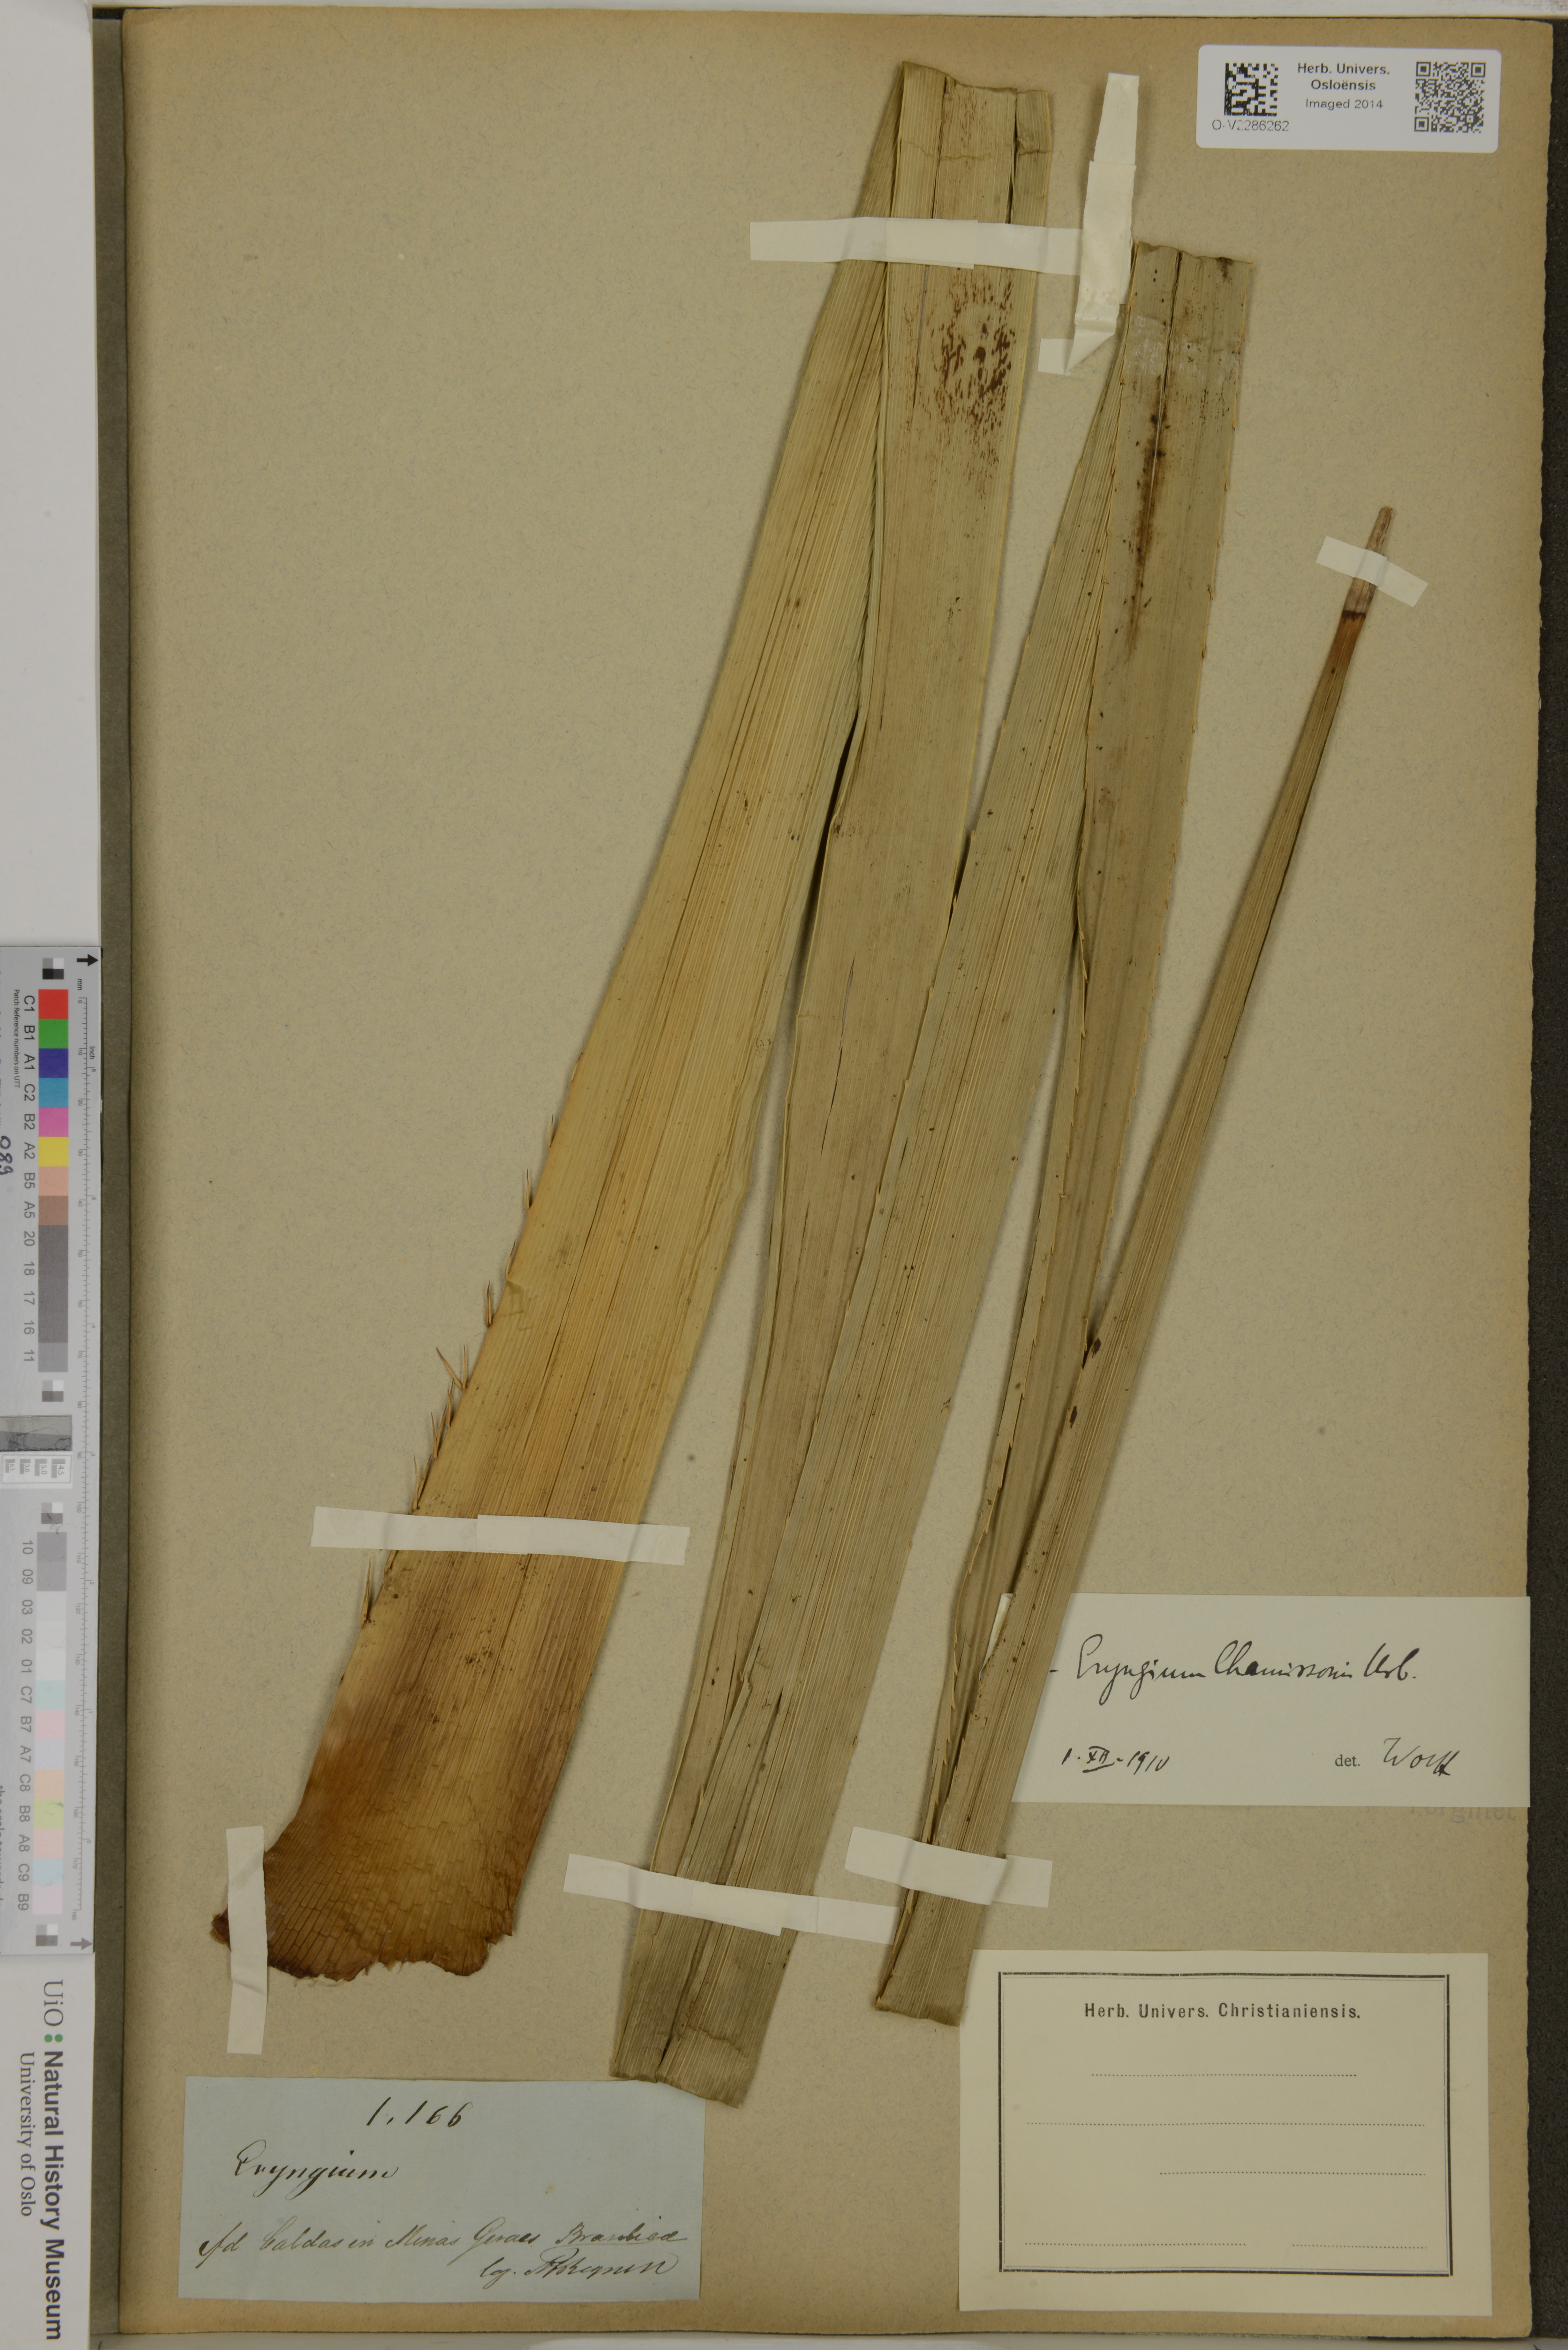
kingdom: Plantae
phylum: Tracheophyta
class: Magnoliopsida
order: Apiales
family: Apiaceae
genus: Eryngium
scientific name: Eryngium chamissonis
